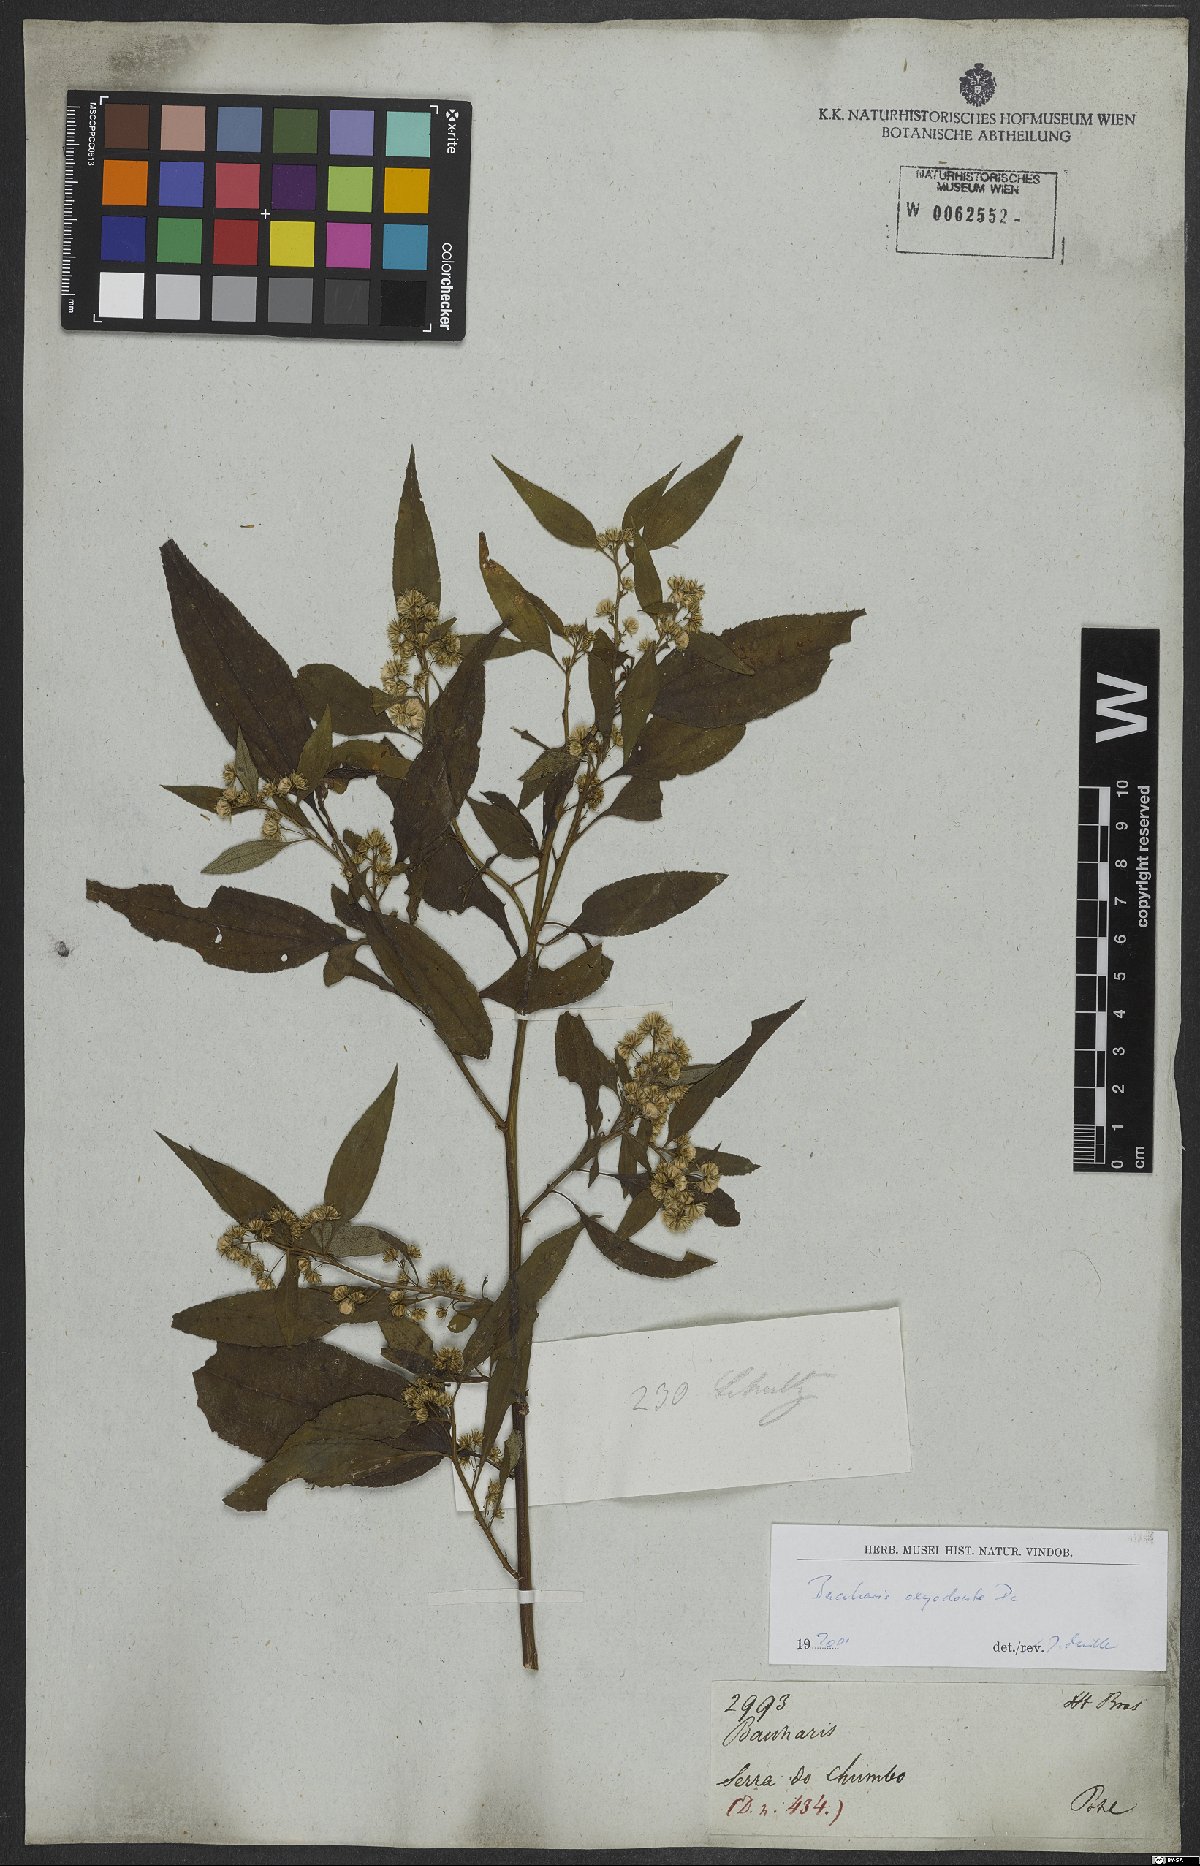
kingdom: Plantae
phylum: Tracheophyta
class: Magnoliopsida
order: Asterales
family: Asteraceae
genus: Baccharis
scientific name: Baccharis oxyodonta
